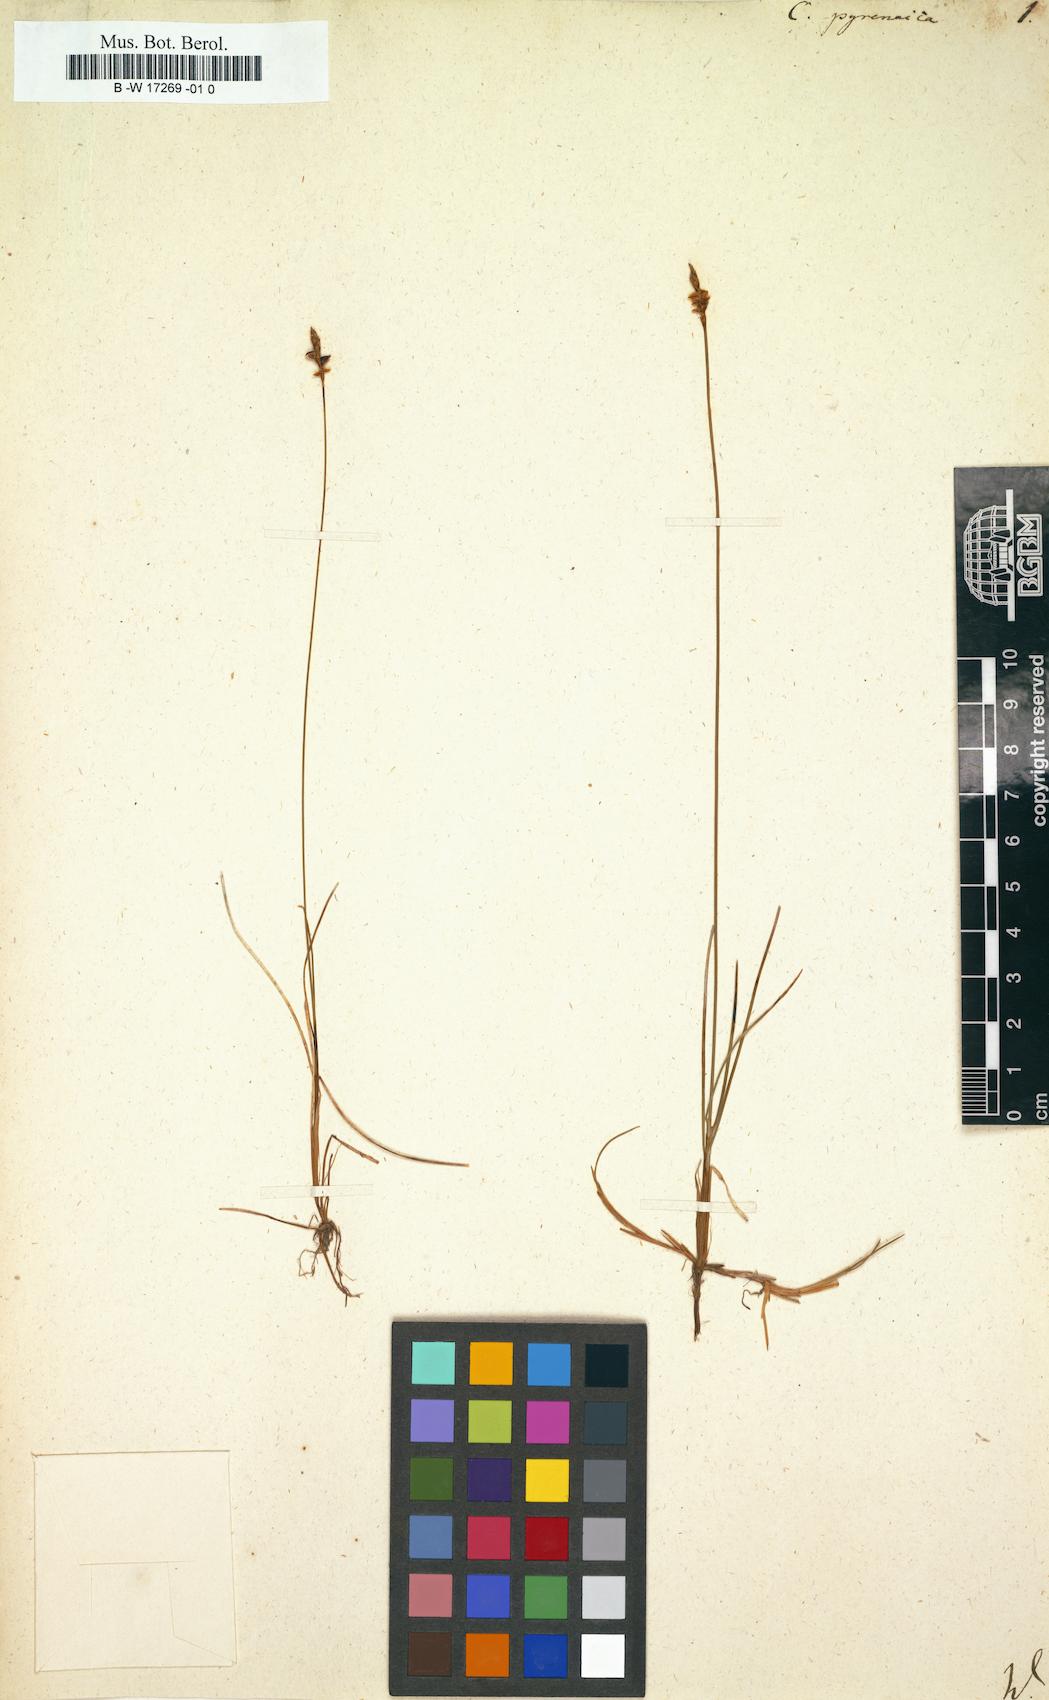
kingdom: Plantae
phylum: Tracheophyta
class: Liliopsida
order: Poales
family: Cyperaceae
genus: Carex
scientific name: Carex pyrenaica
